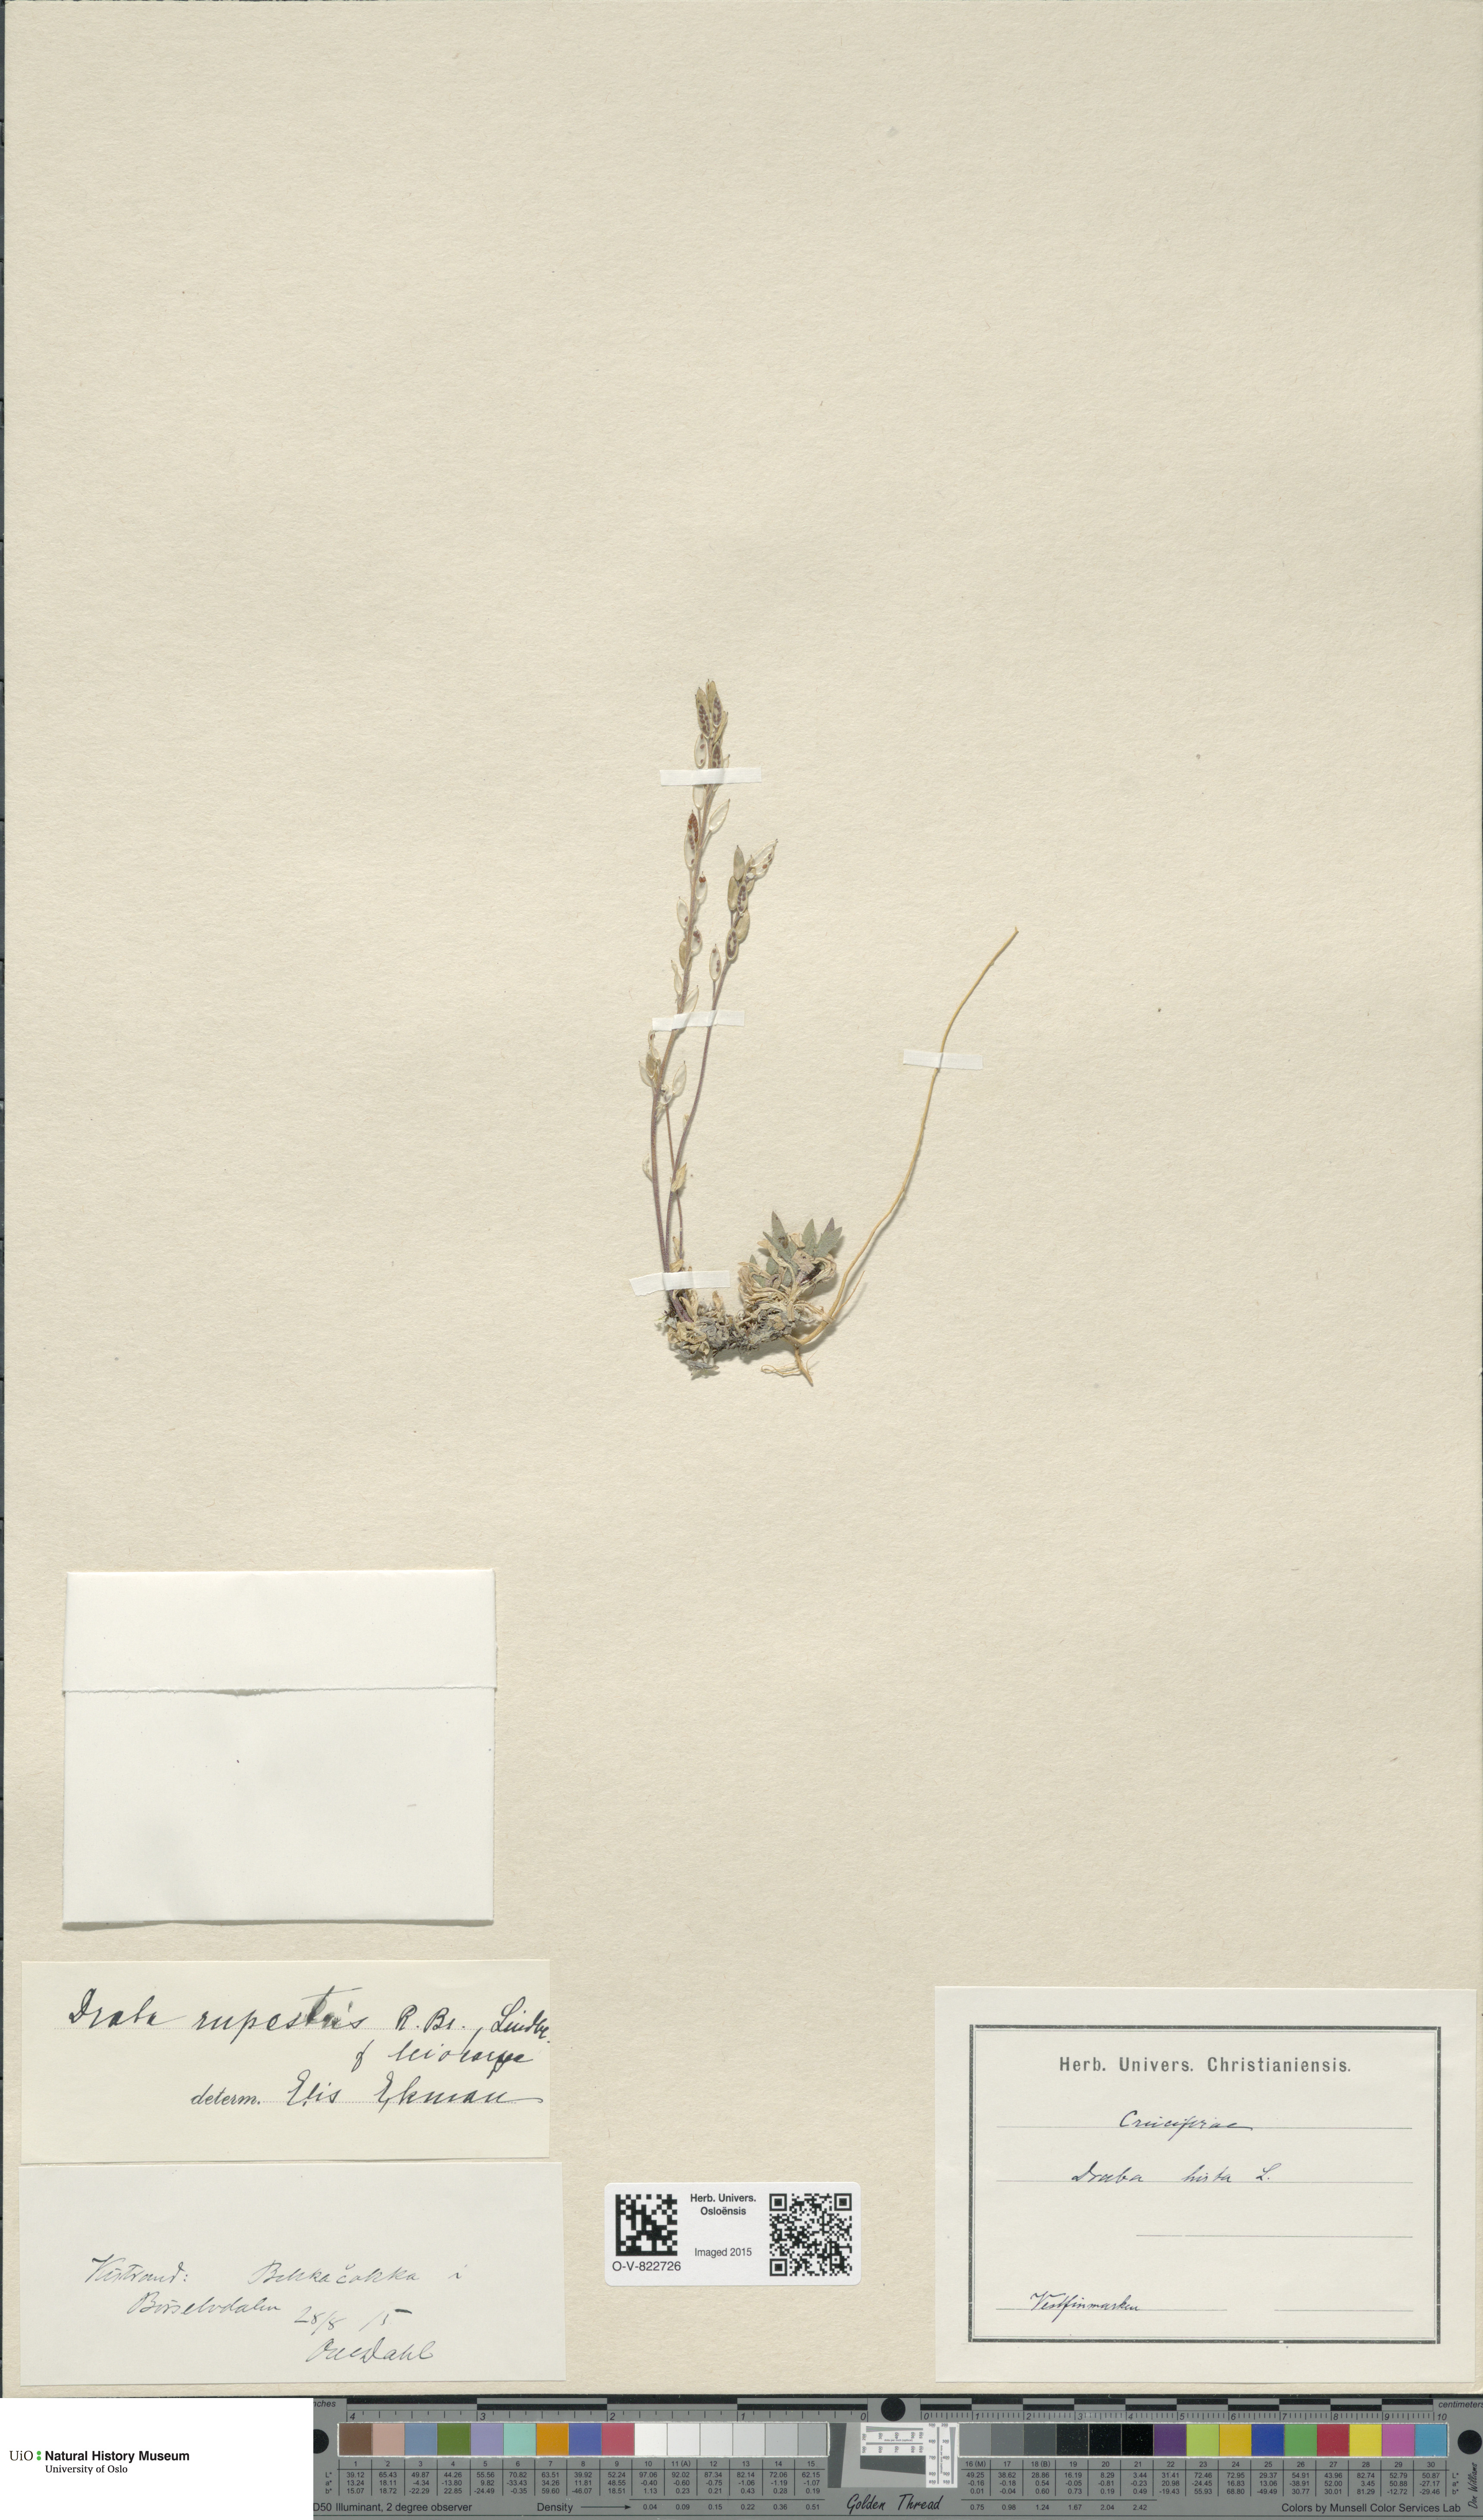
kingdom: Plantae
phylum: Tracheophyta
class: Magnoliopsida
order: Brassicales
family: Brassicaceae
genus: Draba
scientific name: Draba norvegica
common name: Rock whitlowgrass
